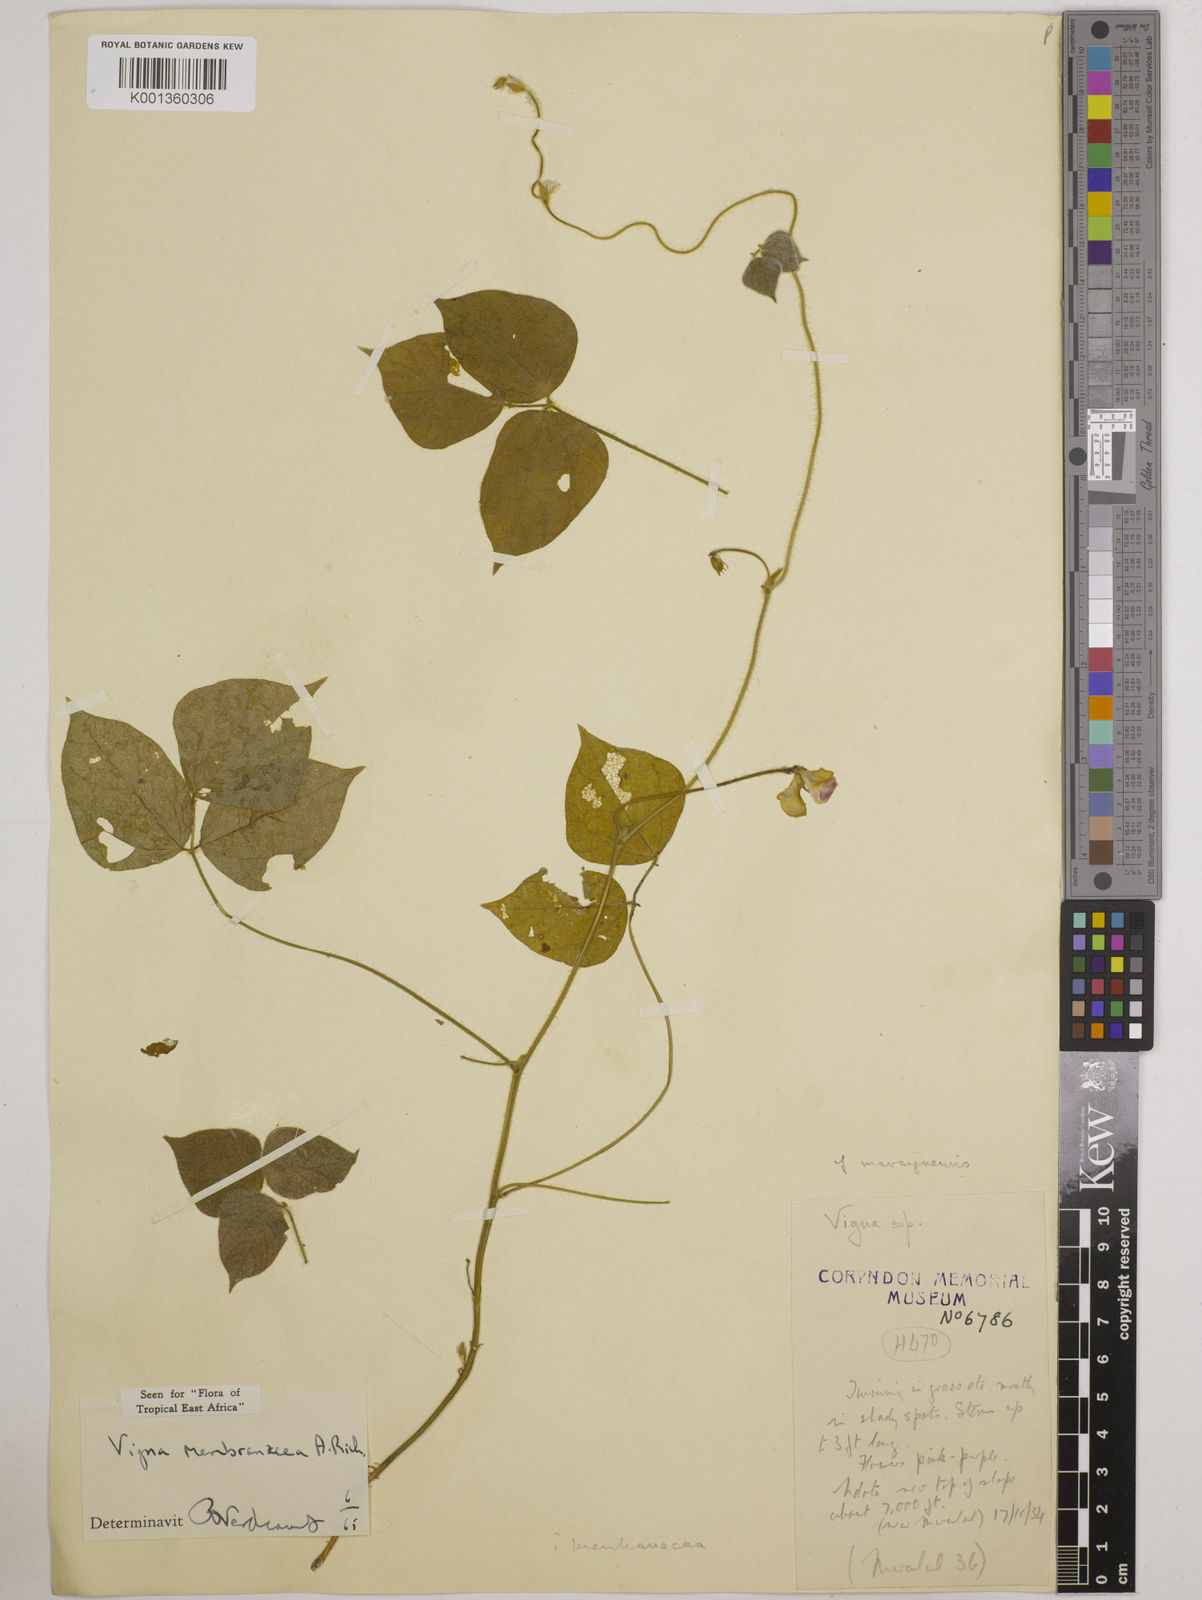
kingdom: Plantae
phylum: Tracheophyta
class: Magnoliopsida
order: Fabales
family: Fabaceae
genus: Vigna
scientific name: Vigna membranacea
